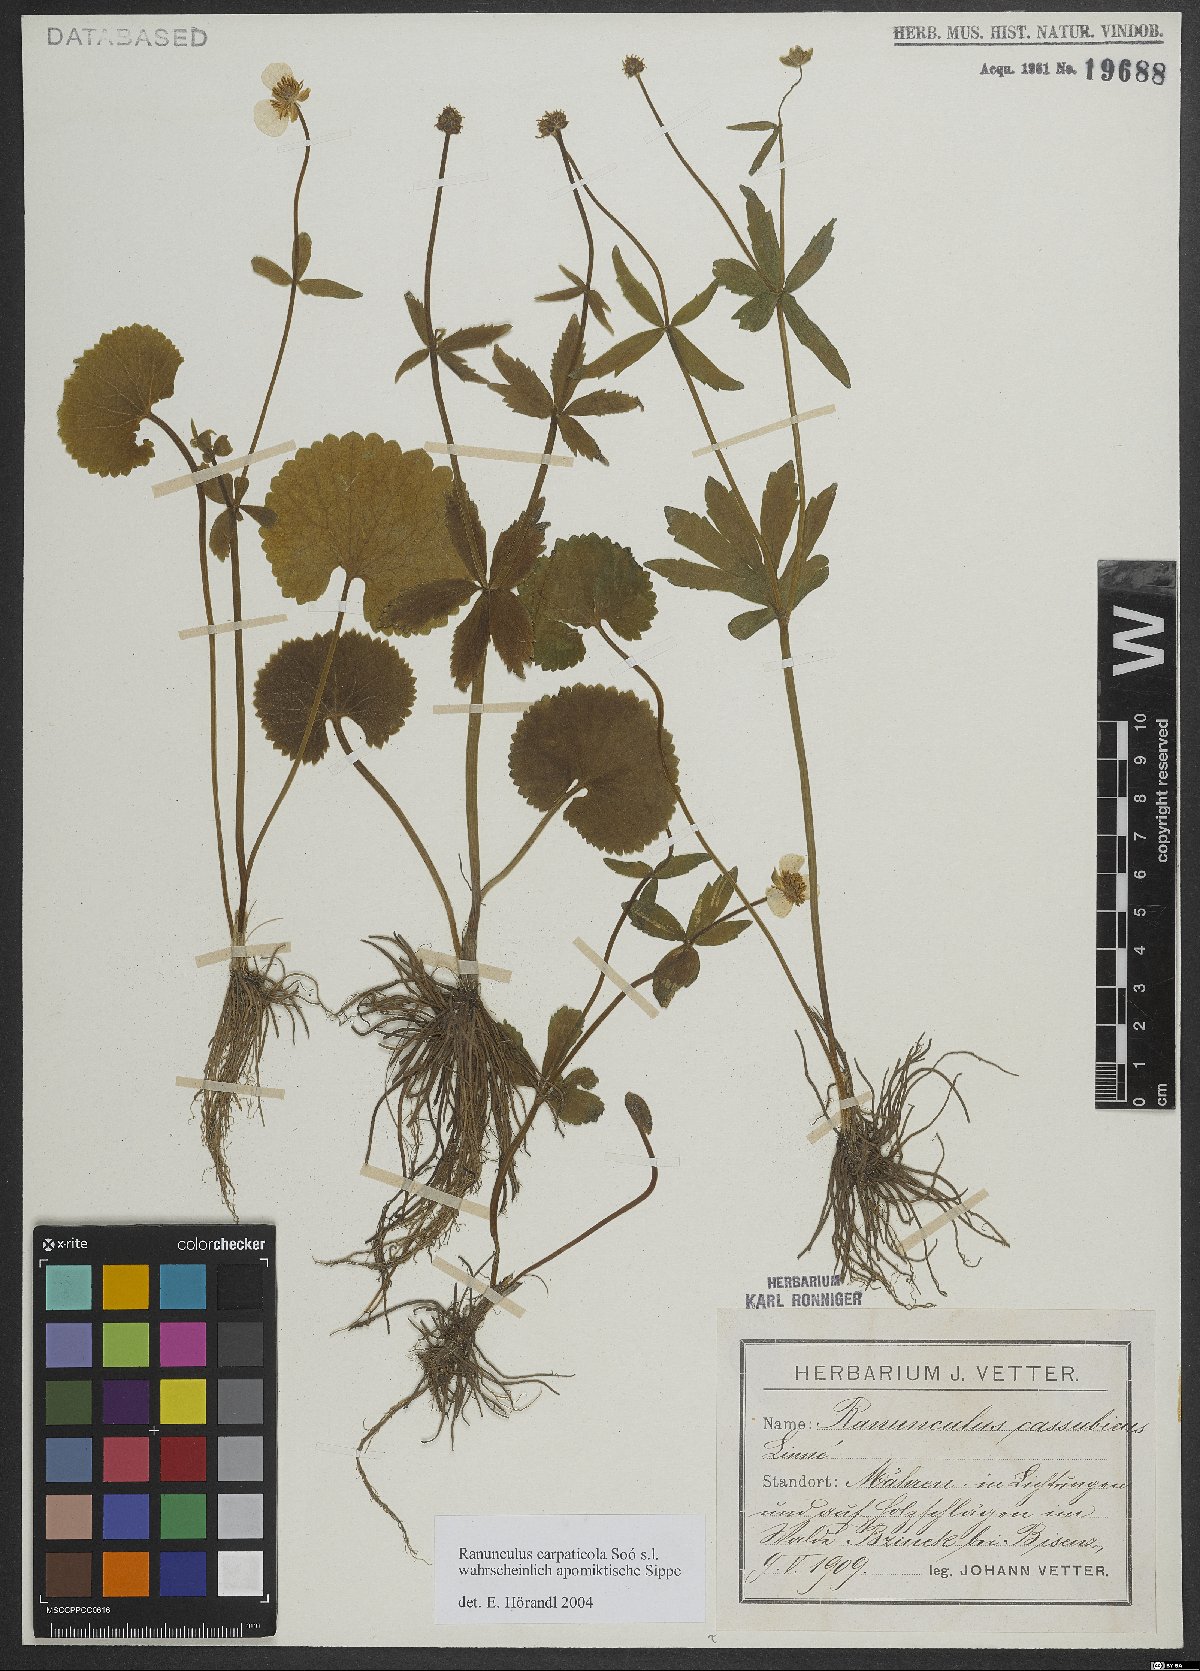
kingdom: Plantae
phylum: Tracheophyta
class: Magnoliopsida
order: Ranunculales
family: Ranunculaceae
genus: Ranunculus
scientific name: Ranunculus cassubicifolius
